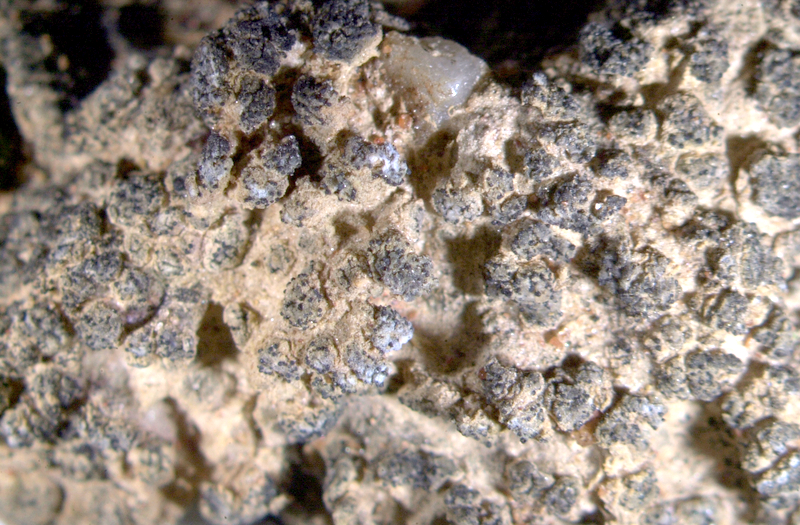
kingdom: Fungi
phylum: Ascomycota
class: Lecanoromycetes
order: Lecanorales
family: Ramalinaceae
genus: Bibbya
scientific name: Bibbya australis
